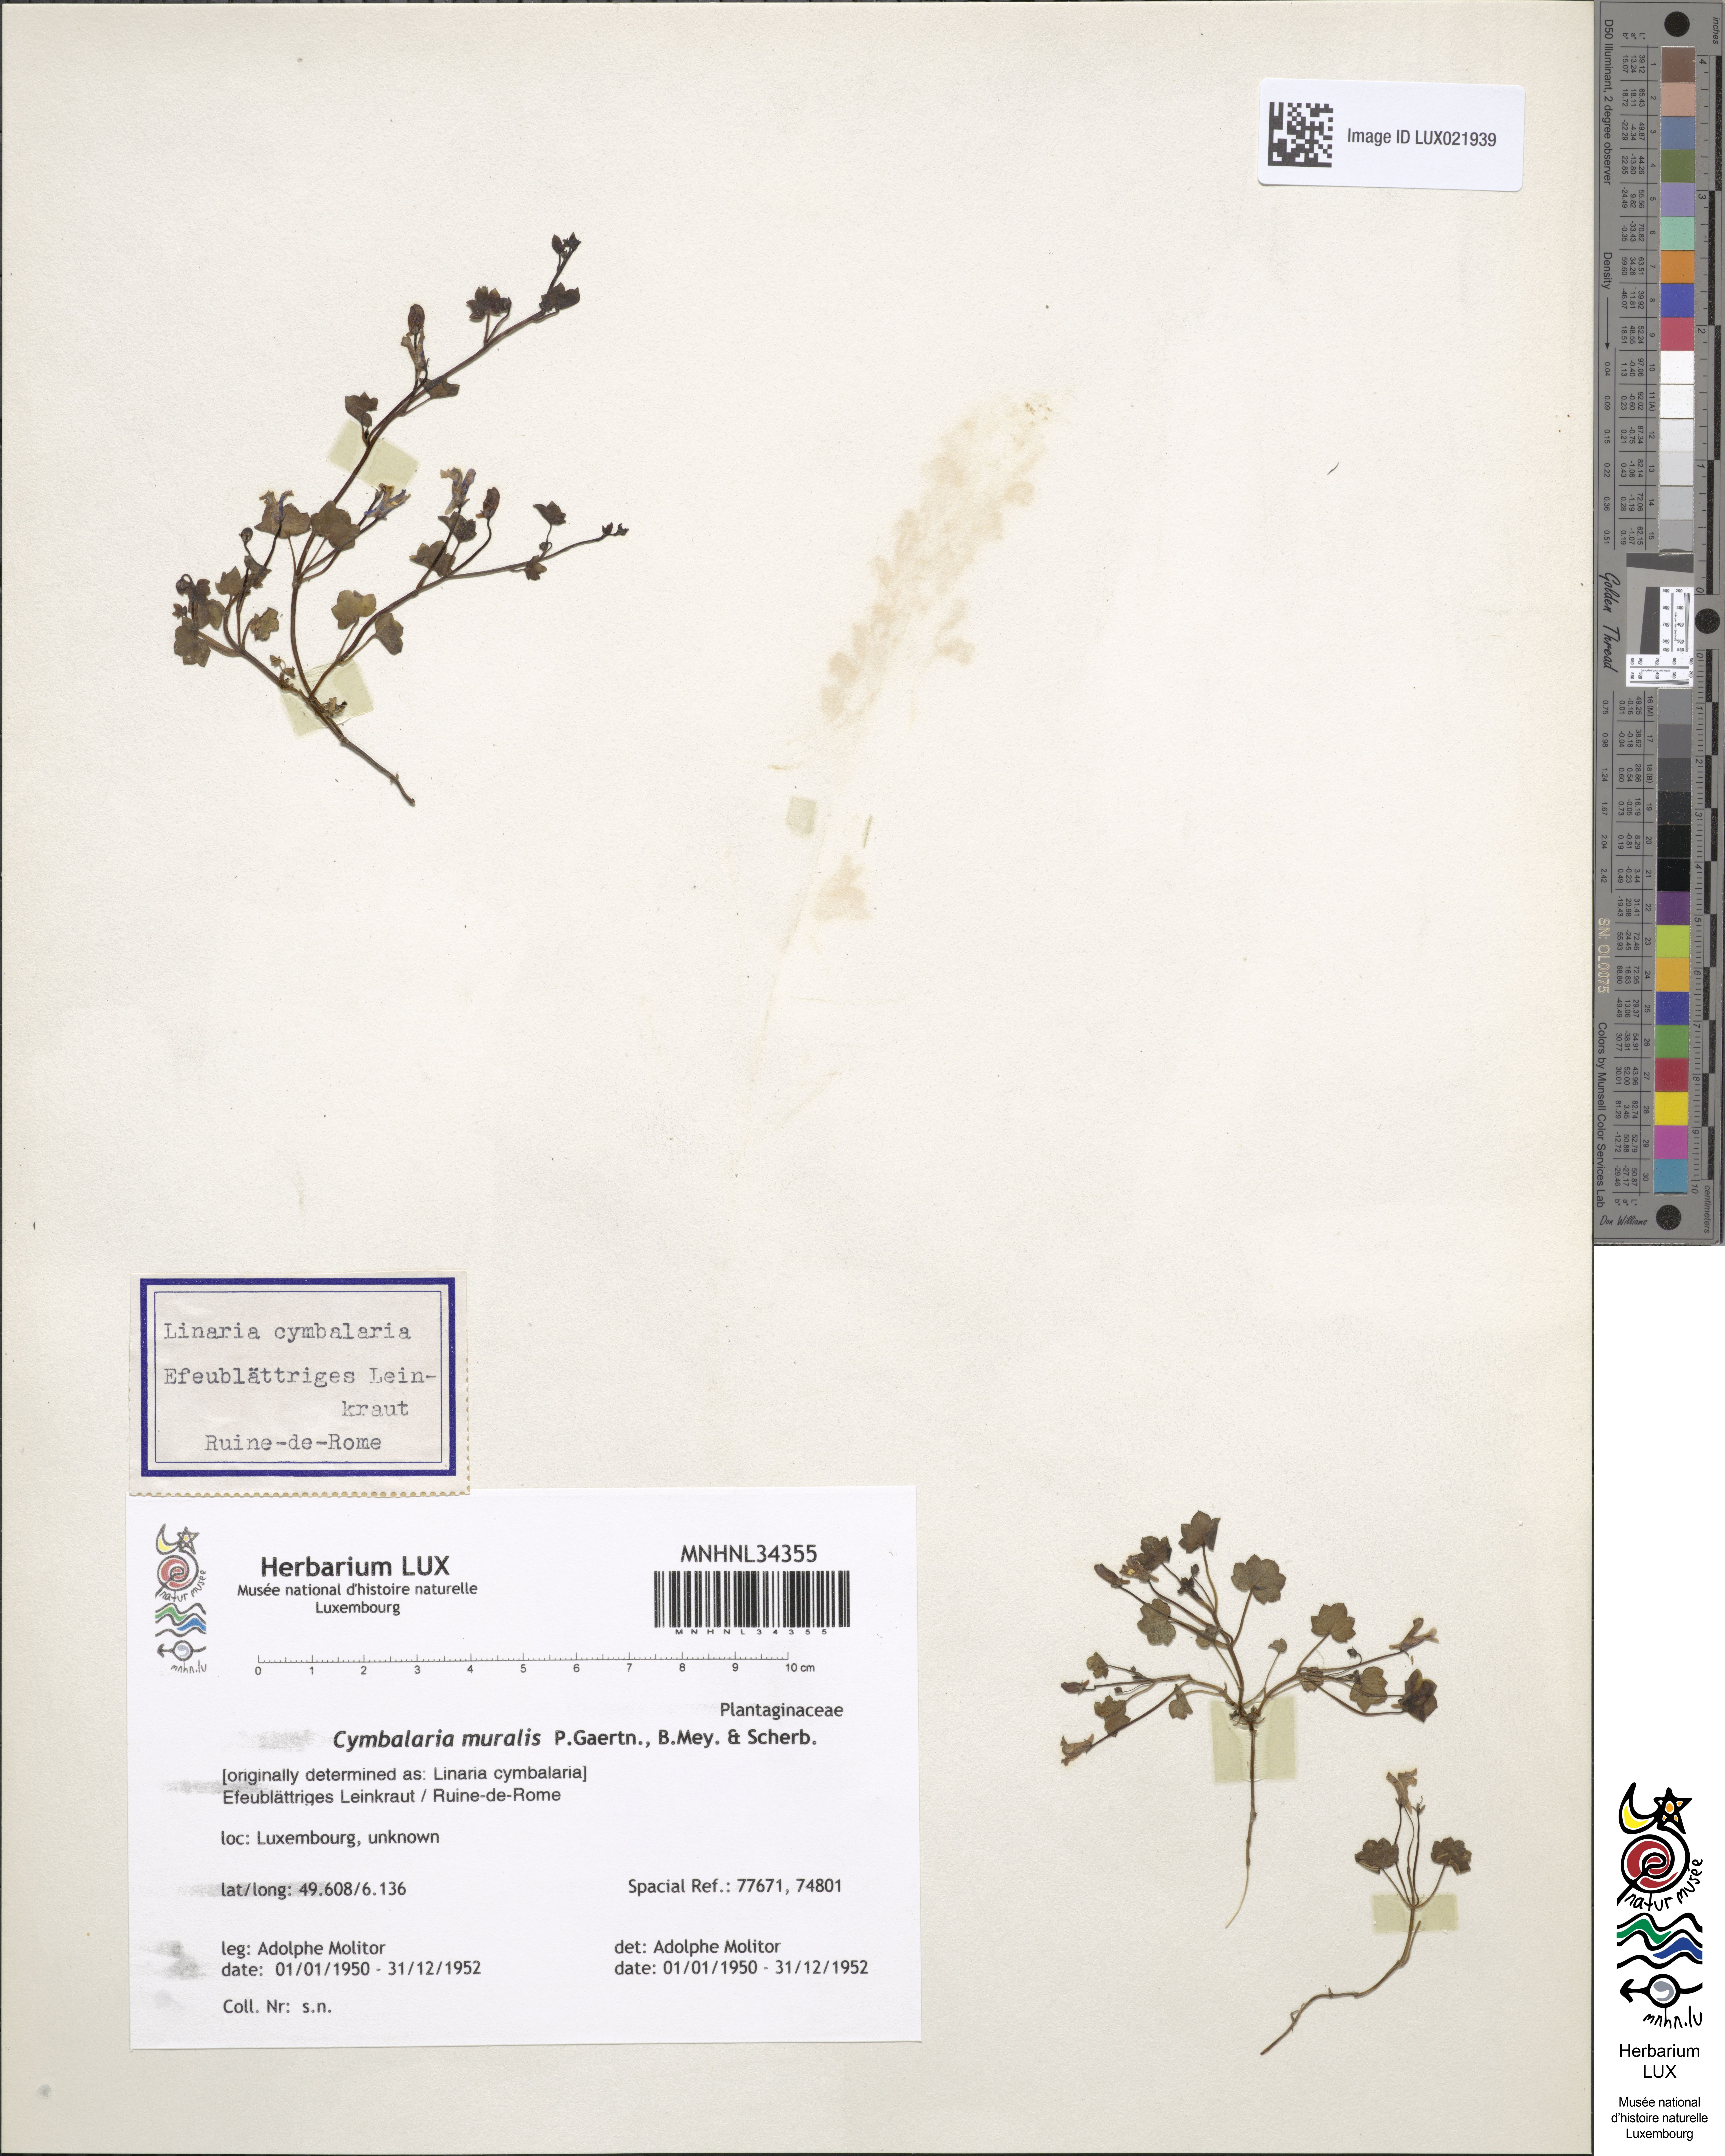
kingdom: Plantae
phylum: Tracheophyta
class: Magnoliopsida
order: Lamiales
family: Plantaginaceae
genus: Cymbalaria
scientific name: Cymbalaria muralis
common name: Ivy-leaved toadflax
